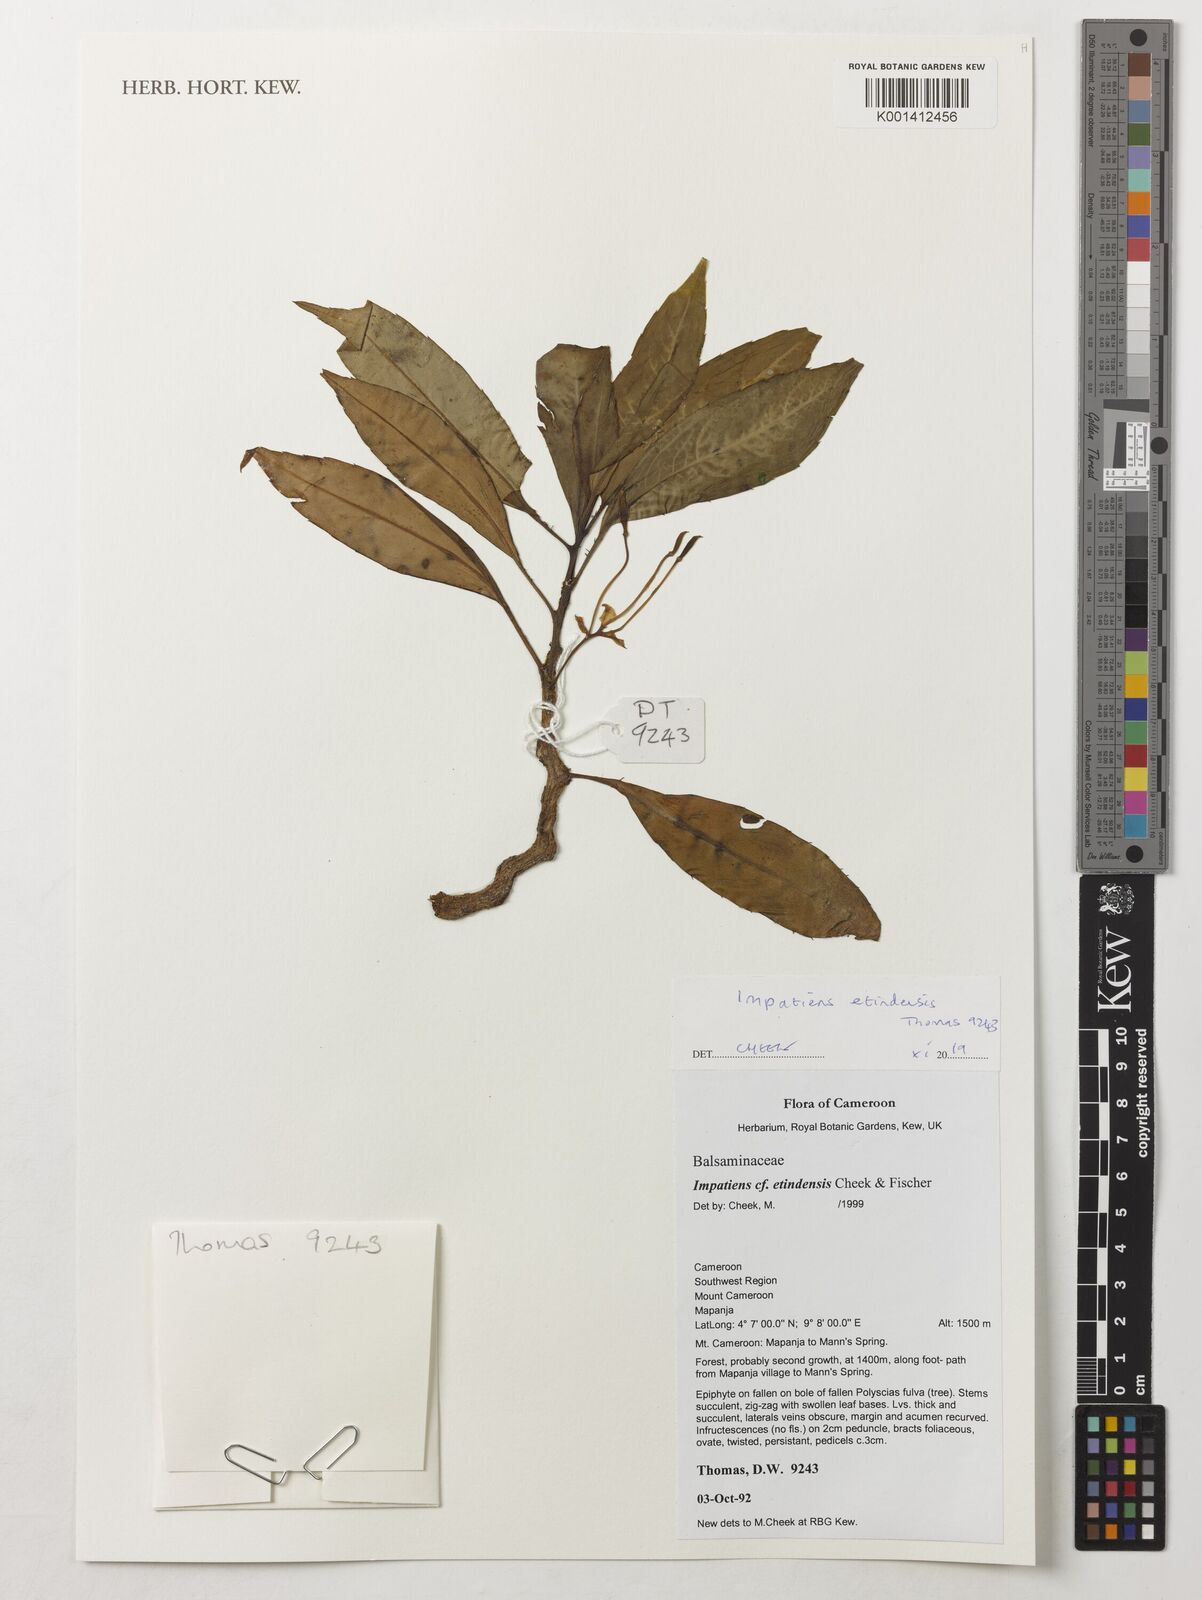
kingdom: Plantae
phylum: Tracheophyta
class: Magnoliopsida
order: Ericales
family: Balsaminaceae
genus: Impatiens
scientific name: Impatiens etindensis
